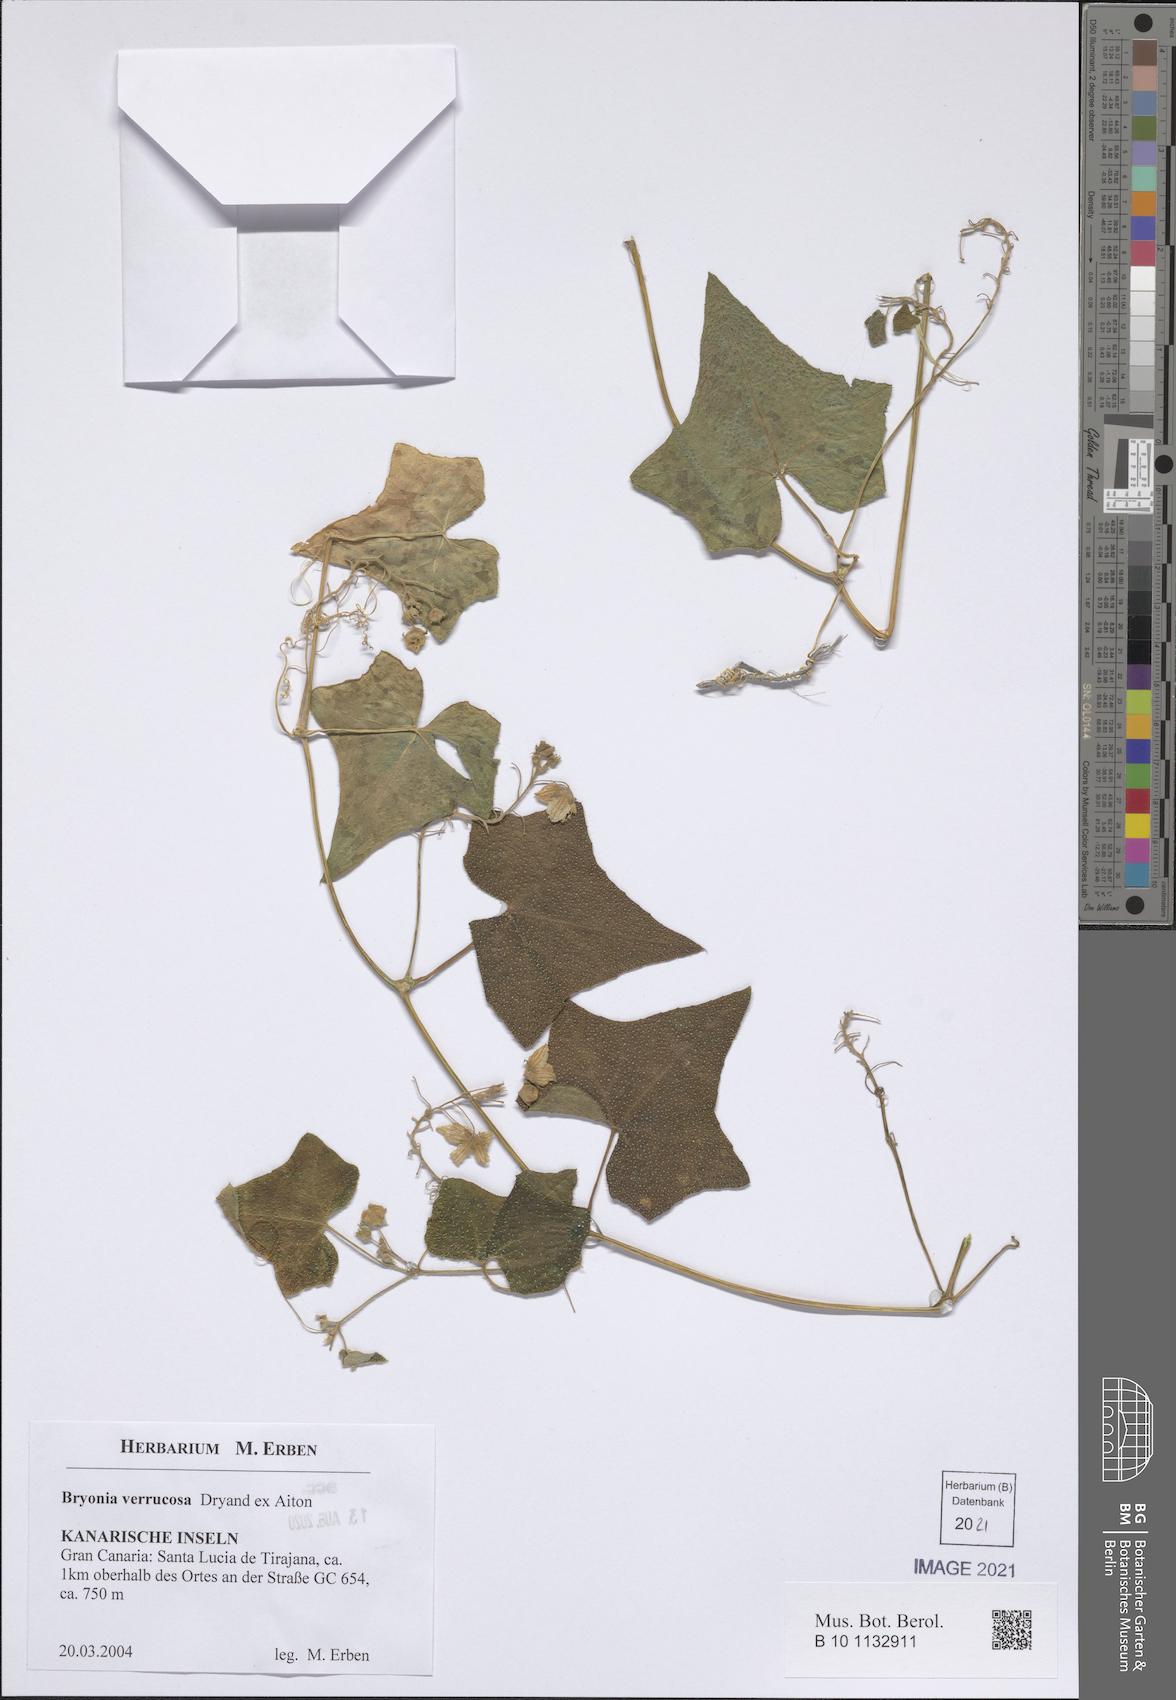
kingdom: Plantae
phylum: Tracheophyta
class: Magnoliopsida
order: Cucurbitales
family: Cucurbitaceae
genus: Bryonia
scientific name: Bryonia verrucosa
